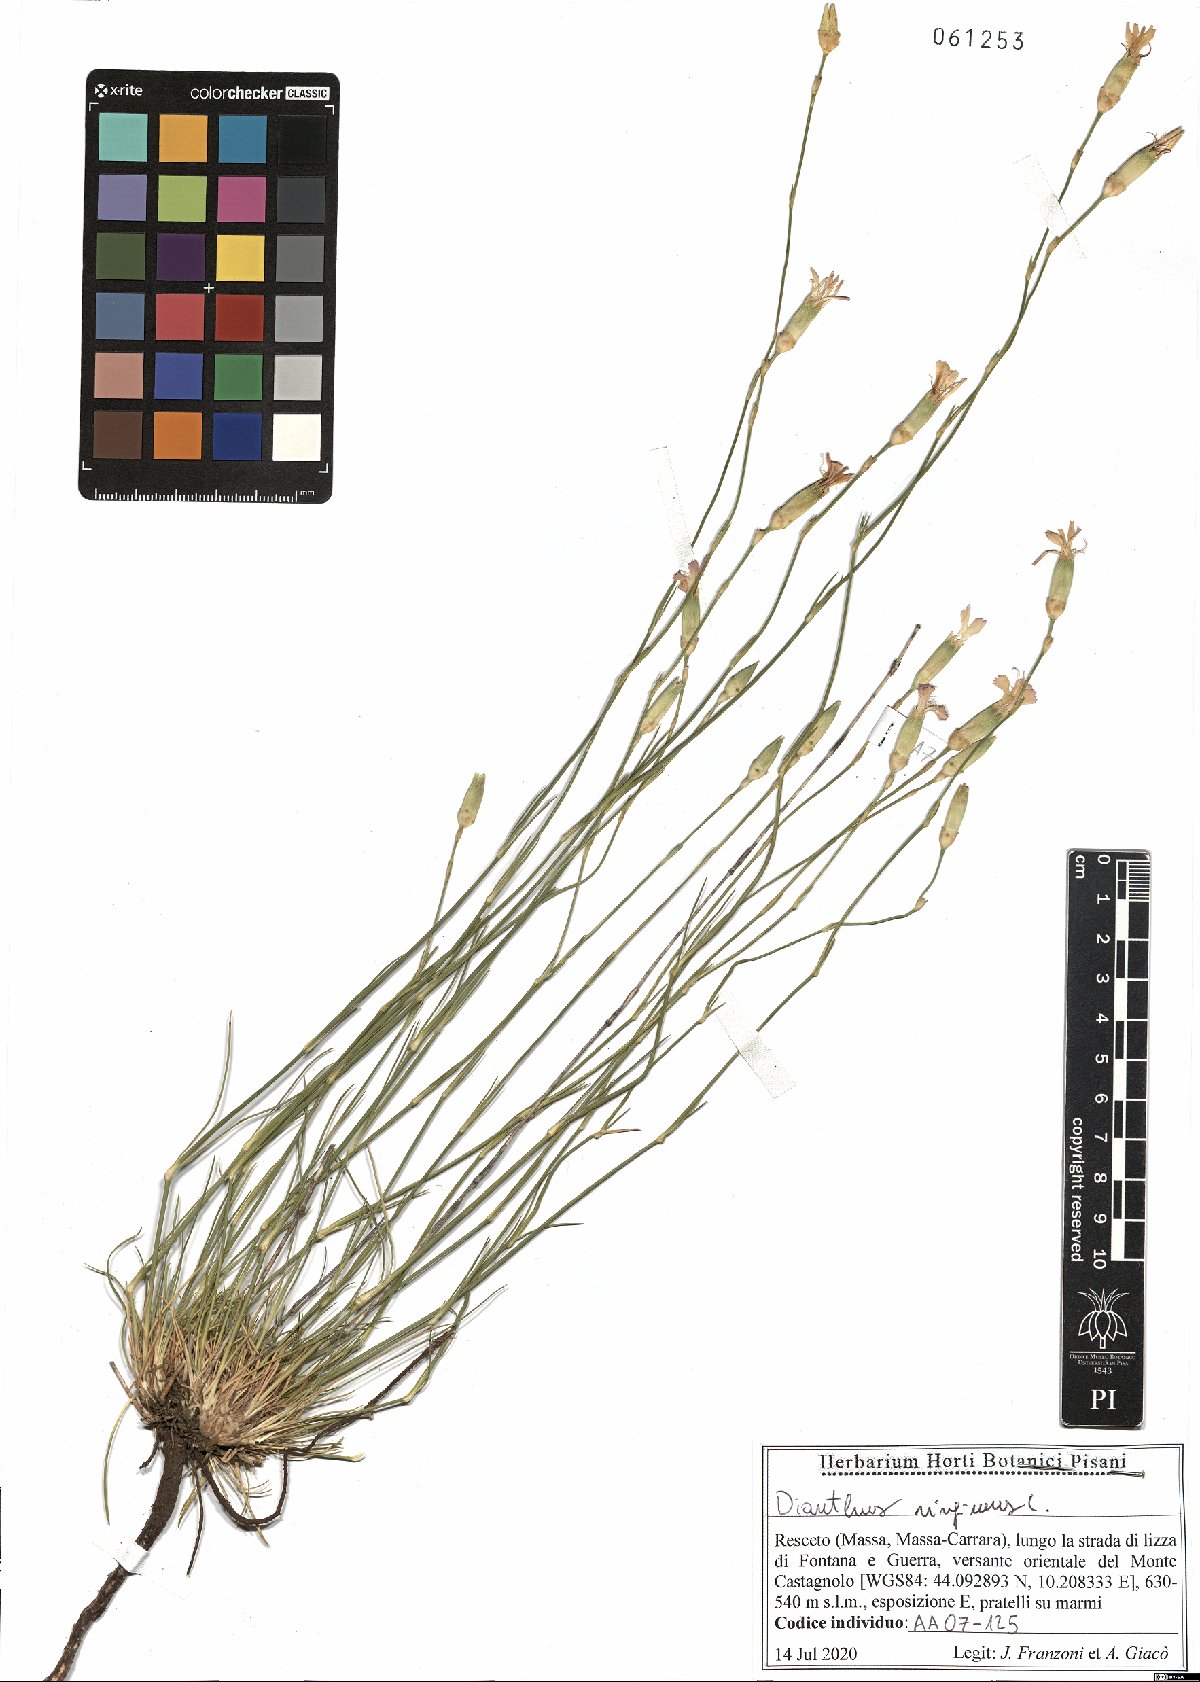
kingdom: Plantae
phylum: Tracheophyta
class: Magnoliopsida
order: Caryophyllales
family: Caryophyllaceae
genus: Dianthus
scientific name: Dianthus virgineus
